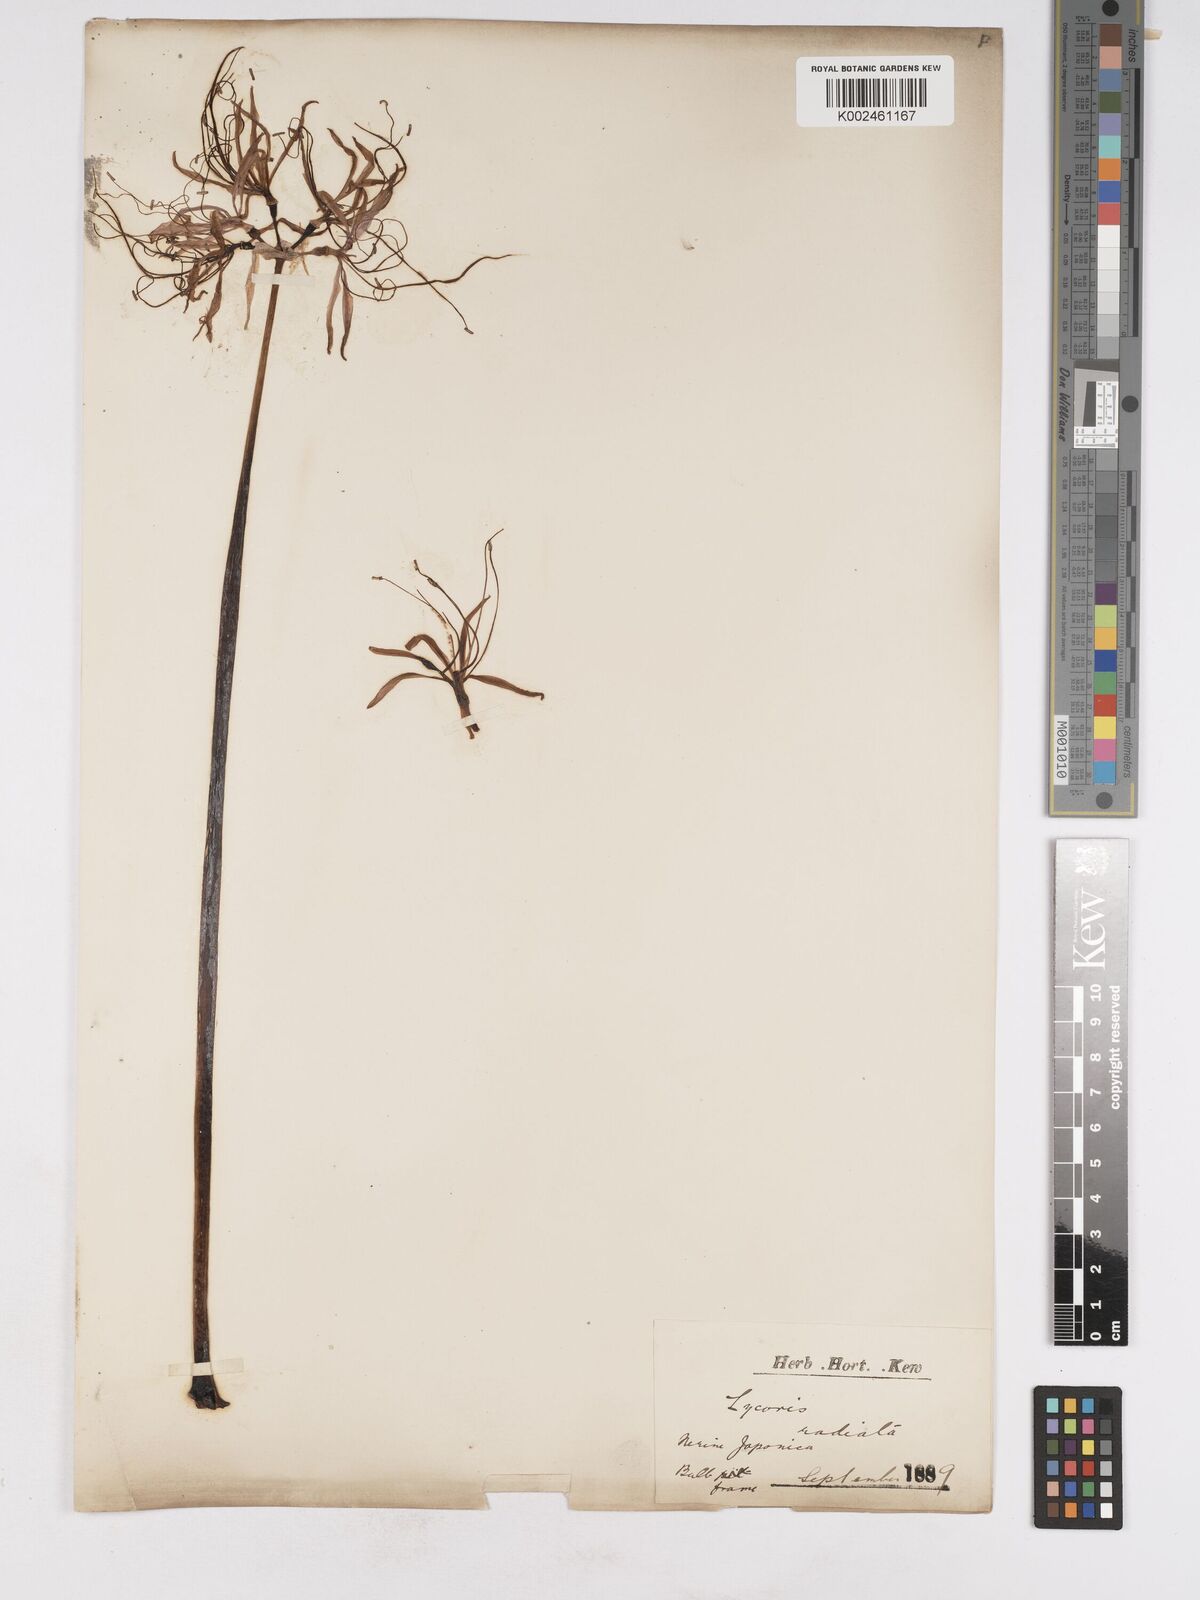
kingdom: Plantae
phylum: Tracheophyta
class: Liliopsida
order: Asparagales
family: Amaryllidaceae
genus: Lycoris
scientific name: Lycoris
